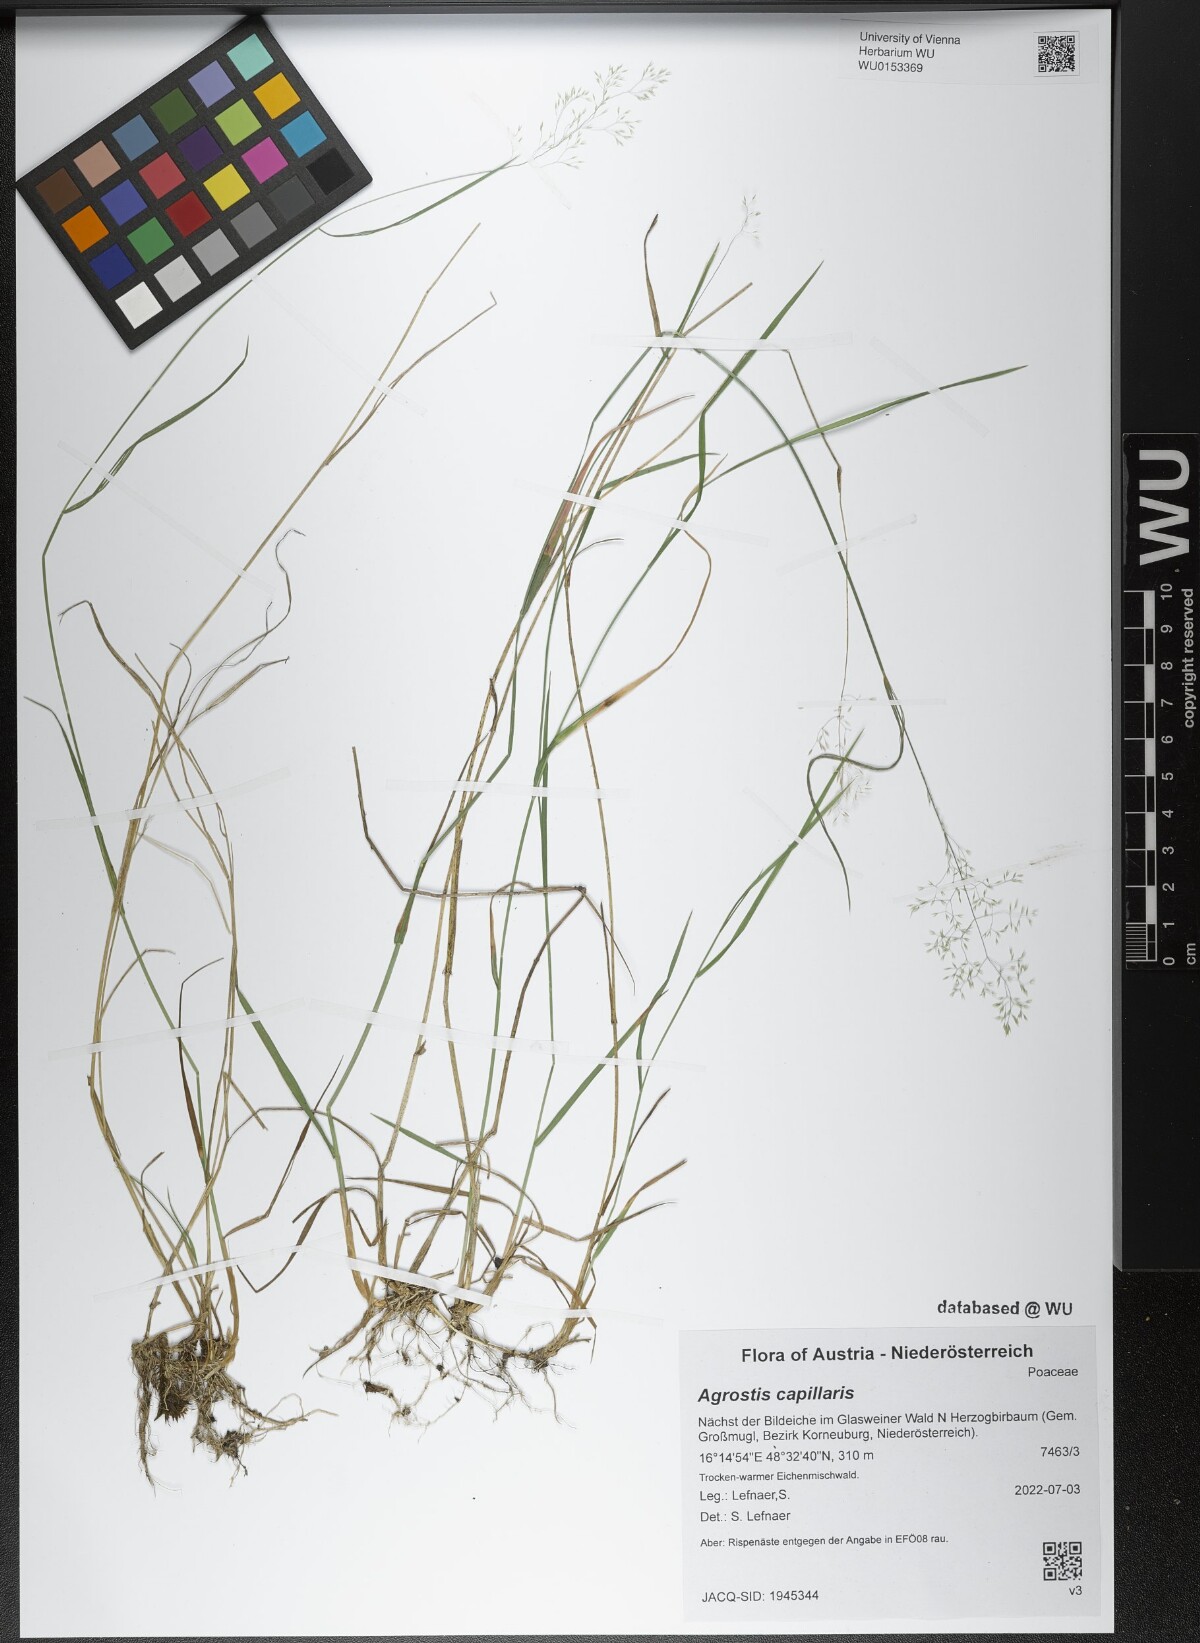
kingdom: Plantae
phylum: Tracheophyta
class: Liliopsida
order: Poales
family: Poaceae
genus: Agrostis
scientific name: Agrostis capillaris
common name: Colonial bentgrass
